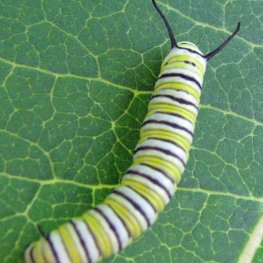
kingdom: Animalia
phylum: Arthropoda
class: Insecta
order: Lepidoptera
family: Nymphalidae
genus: Danaus
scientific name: Danaus plexippus
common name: Monarch
